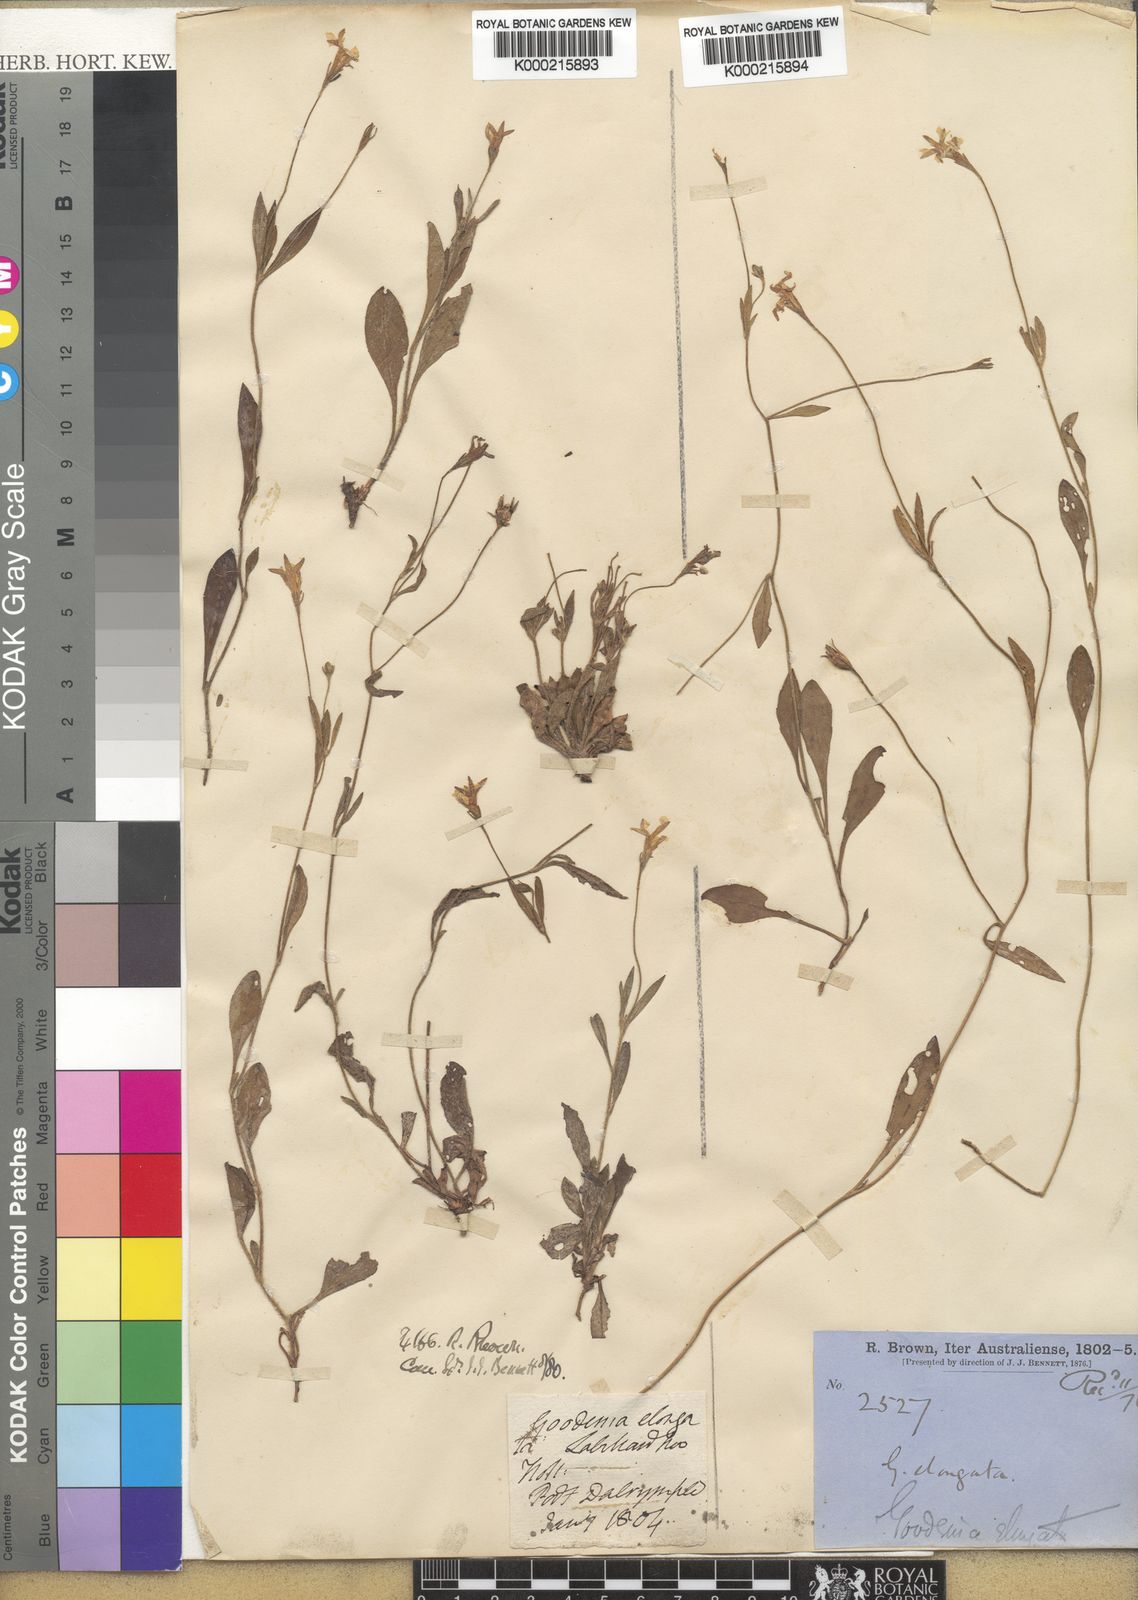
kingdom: Plantae
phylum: Tracheophyta
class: Magnoliopsida
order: Asterales
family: Goodeniaceae
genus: Goodenia
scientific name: Goodenia elongata
